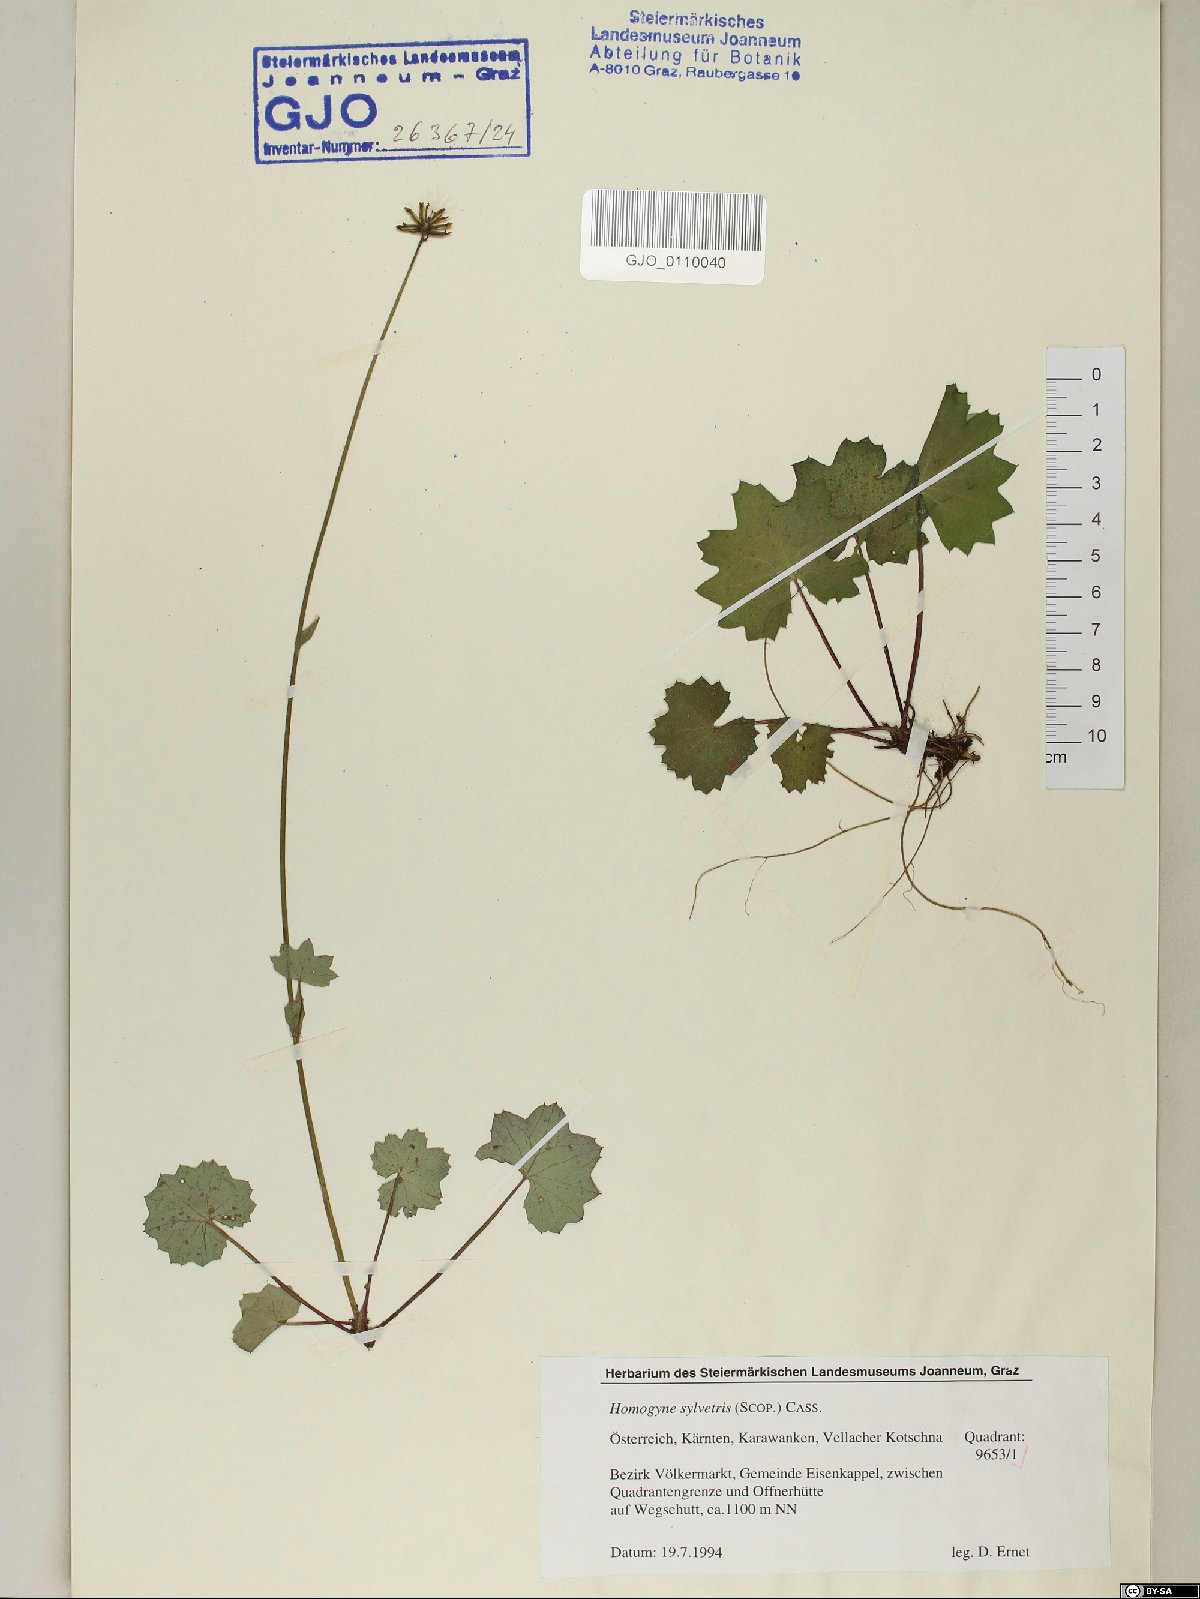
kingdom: Plantae
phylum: Tracheophyta
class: Magnoliopsida
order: Asterales
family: Asteraceae
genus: Homogyne
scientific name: Homogyne sylvestris
